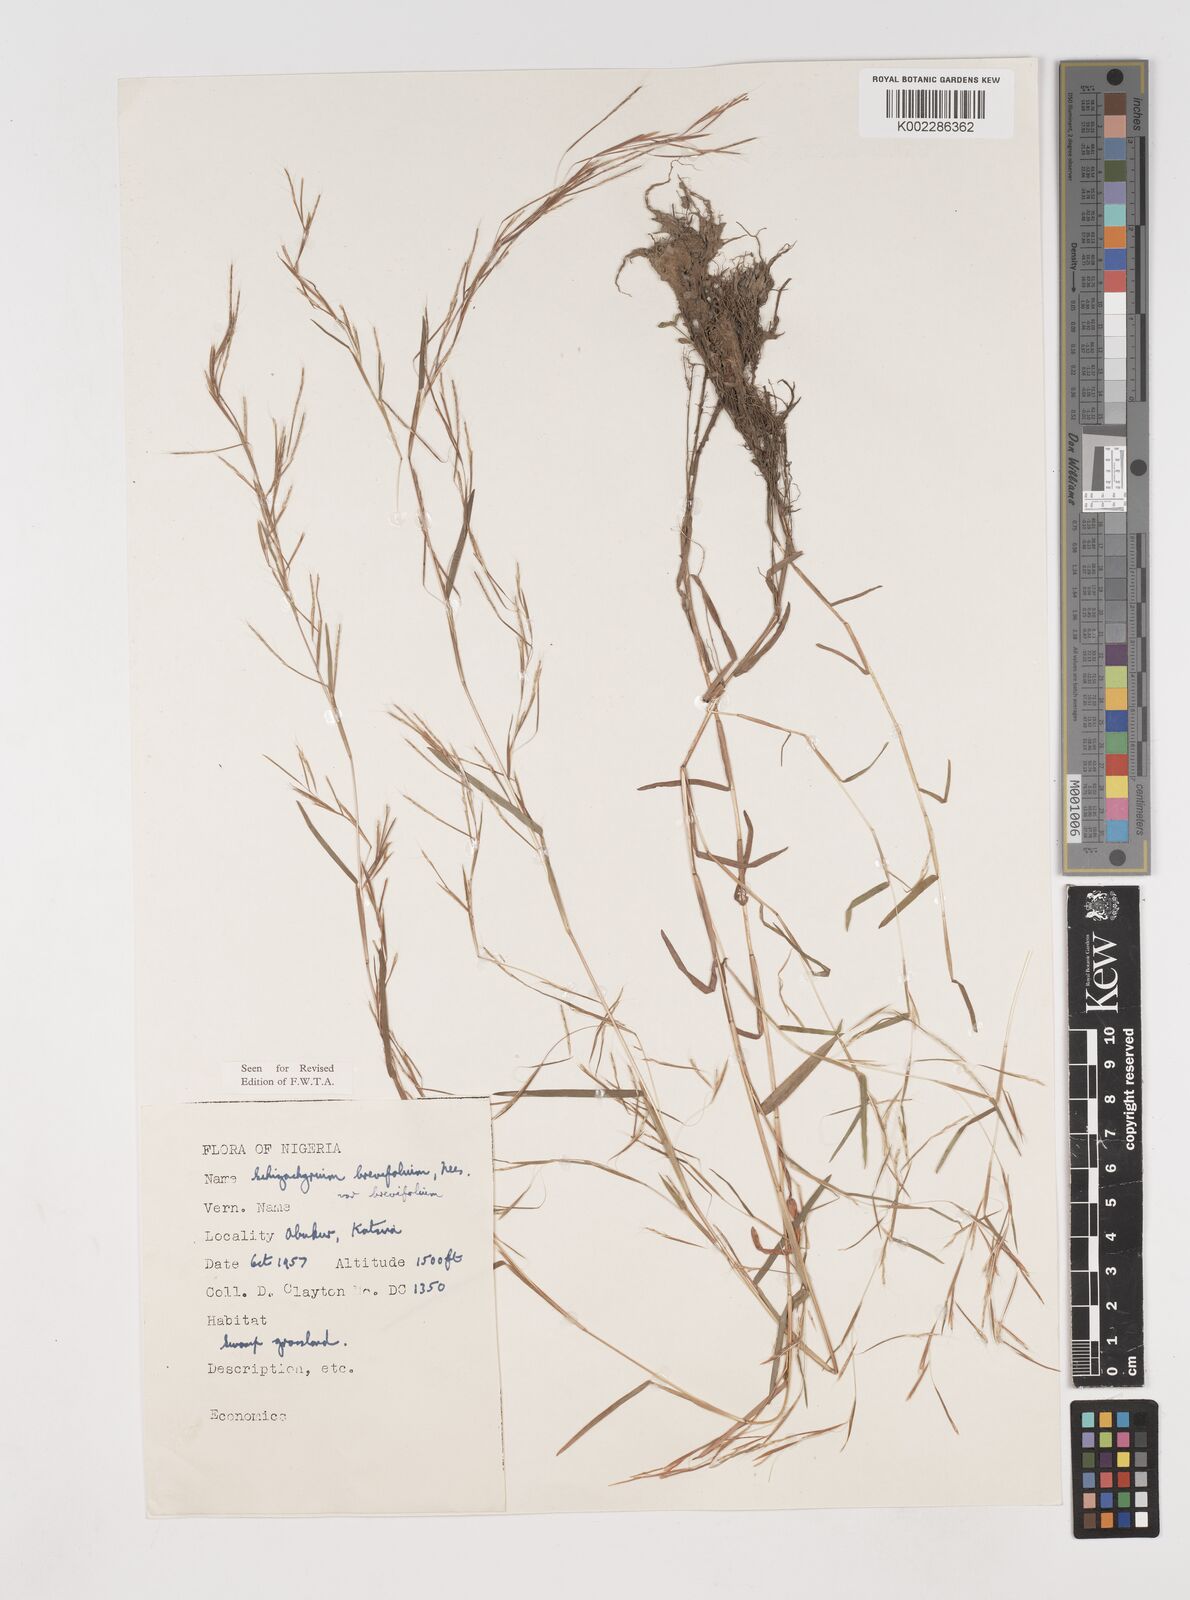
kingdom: Plantae
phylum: Tracheophyta
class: Liliopsida
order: Poales
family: Poaceae
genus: Schizachyrium
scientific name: Schizachyrium brevifolium
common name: Serillo dulce
